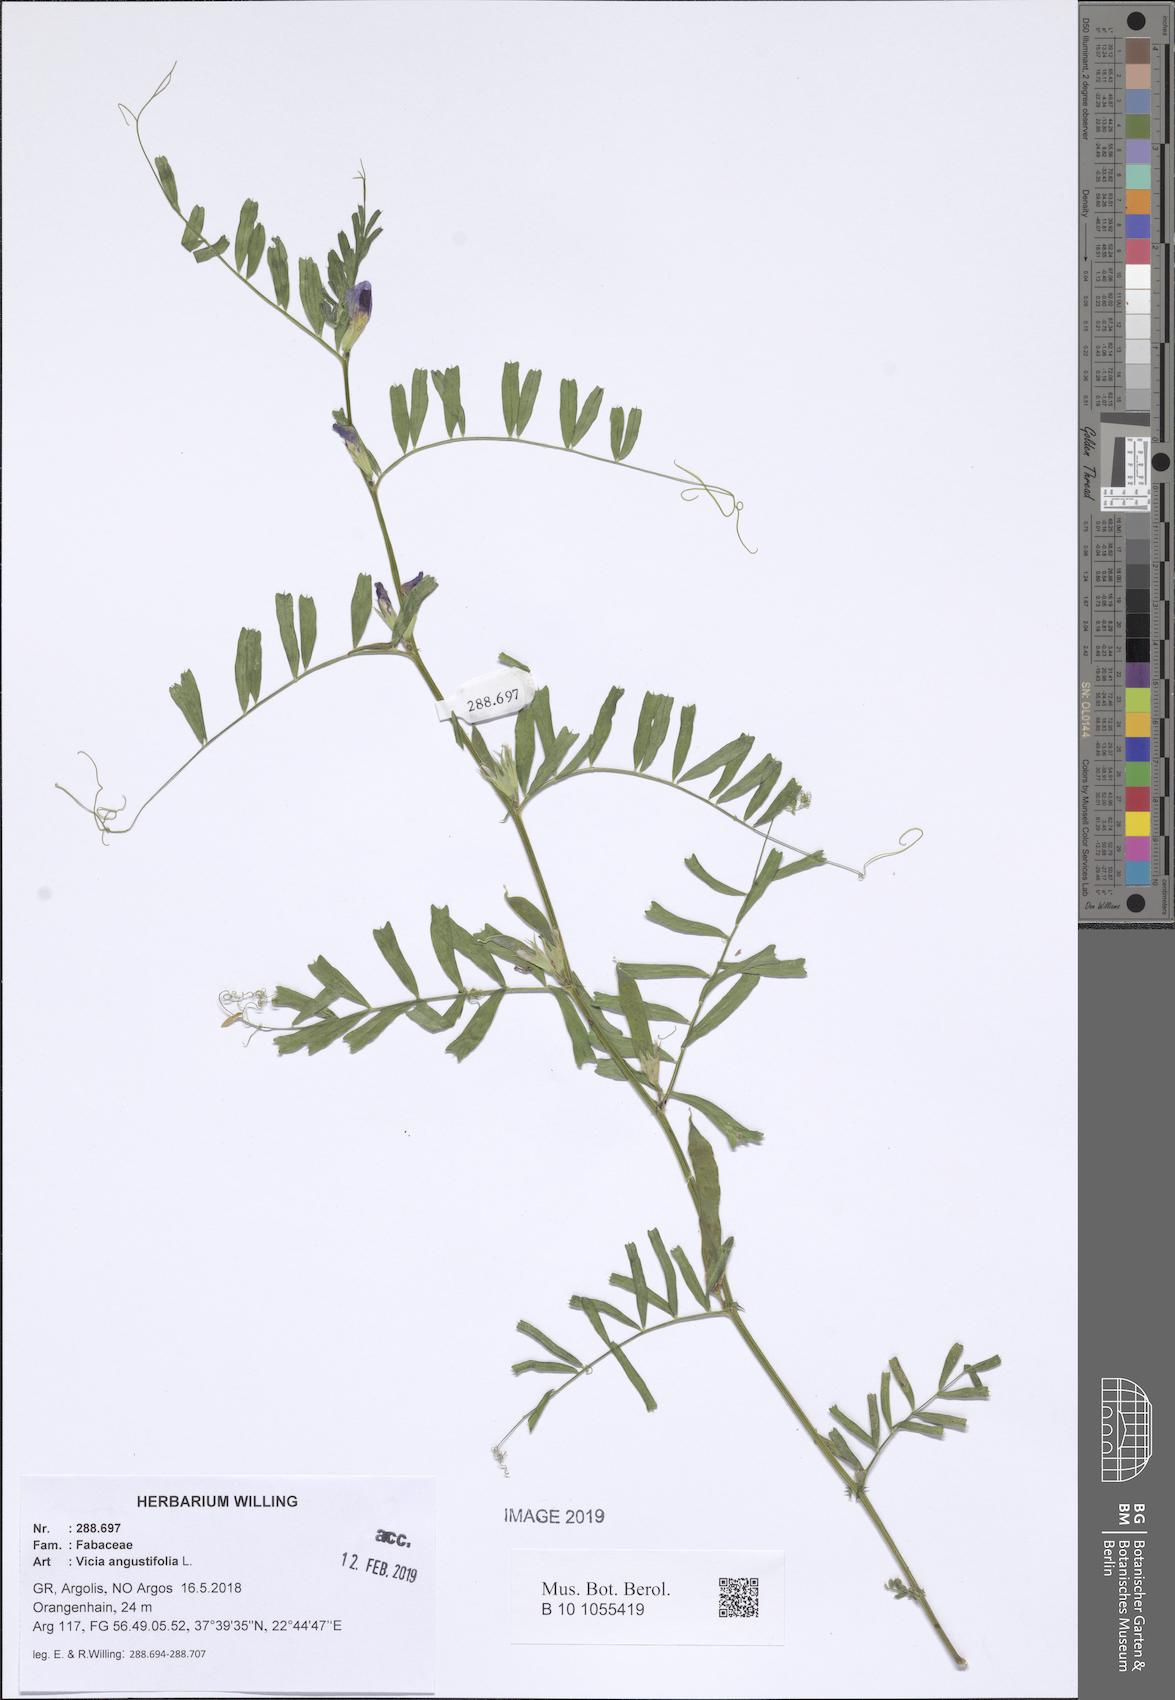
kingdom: Plantae
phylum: Tracheophyta
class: Magnoliopsida
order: Fabales
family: Fabaceae
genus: Vicia
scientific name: Vicia sativa
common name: Garden vetch
